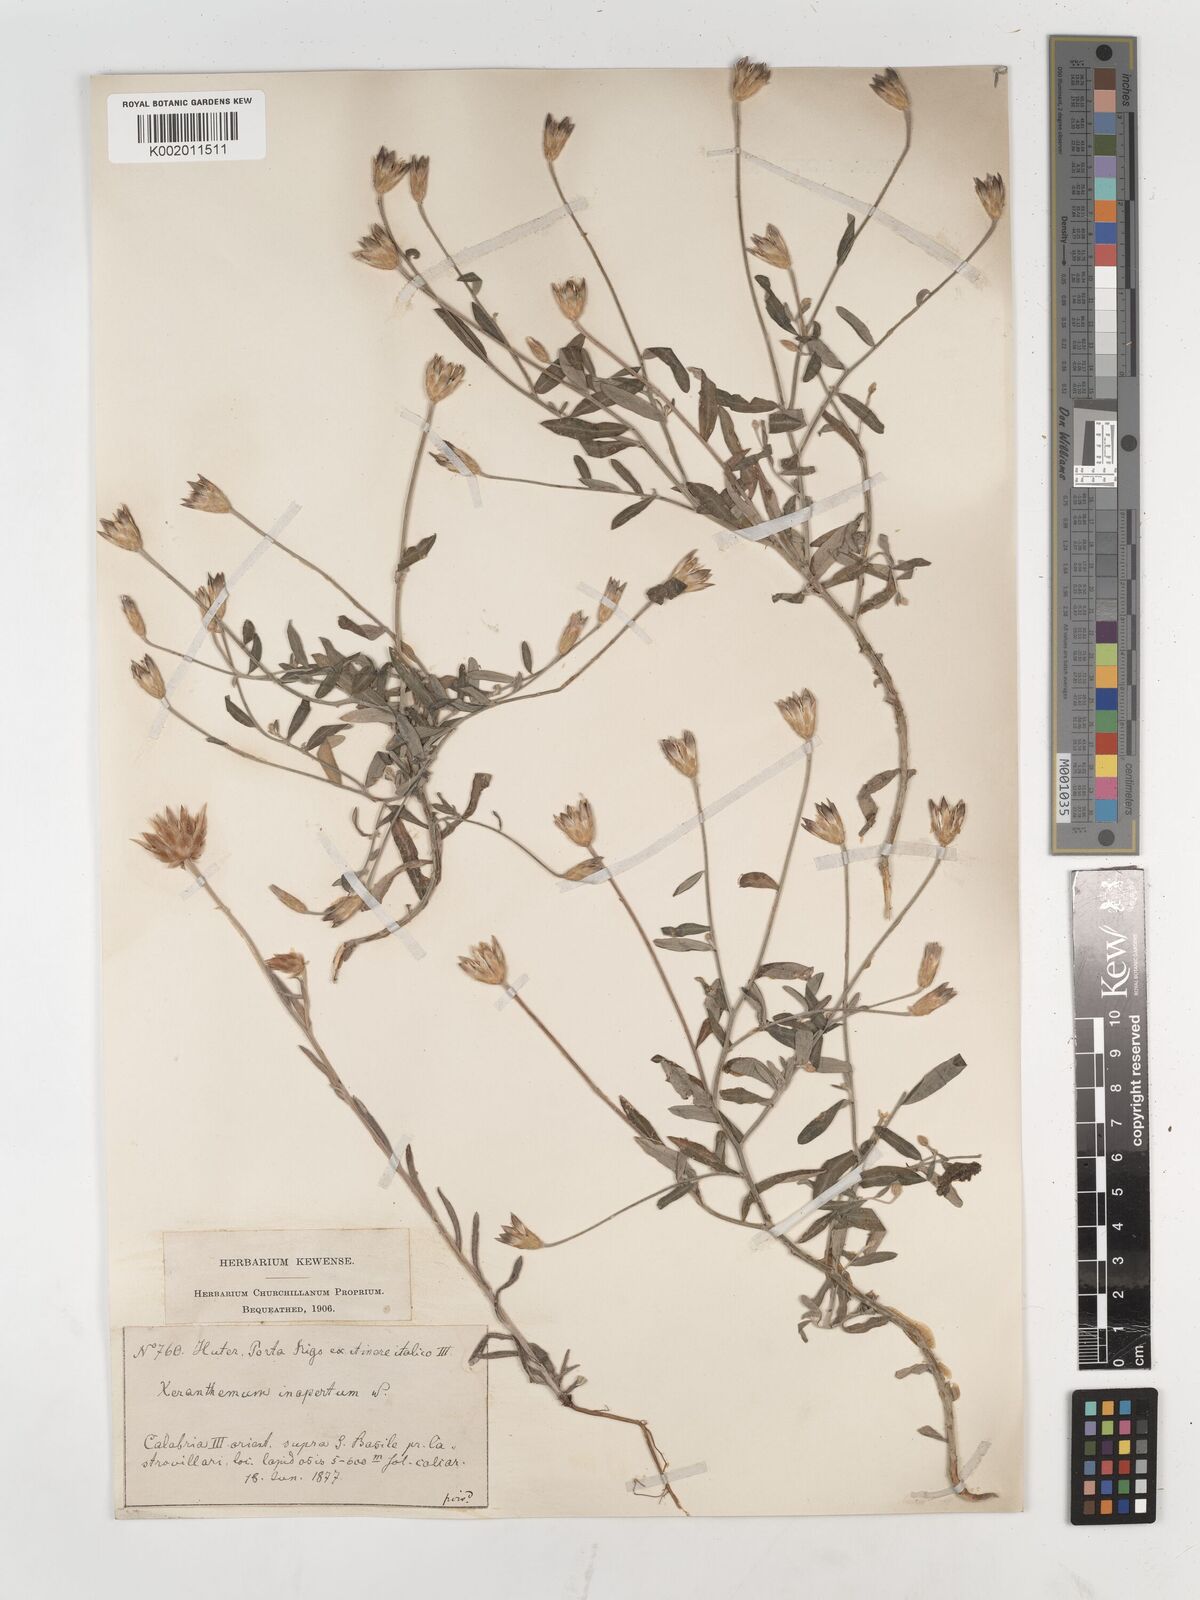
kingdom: Plantae
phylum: Tracheophyta
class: Magnoliopsida
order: Asterales
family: Asteraceae
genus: Xeranthemum
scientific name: Xeranthemum cylindraceum
